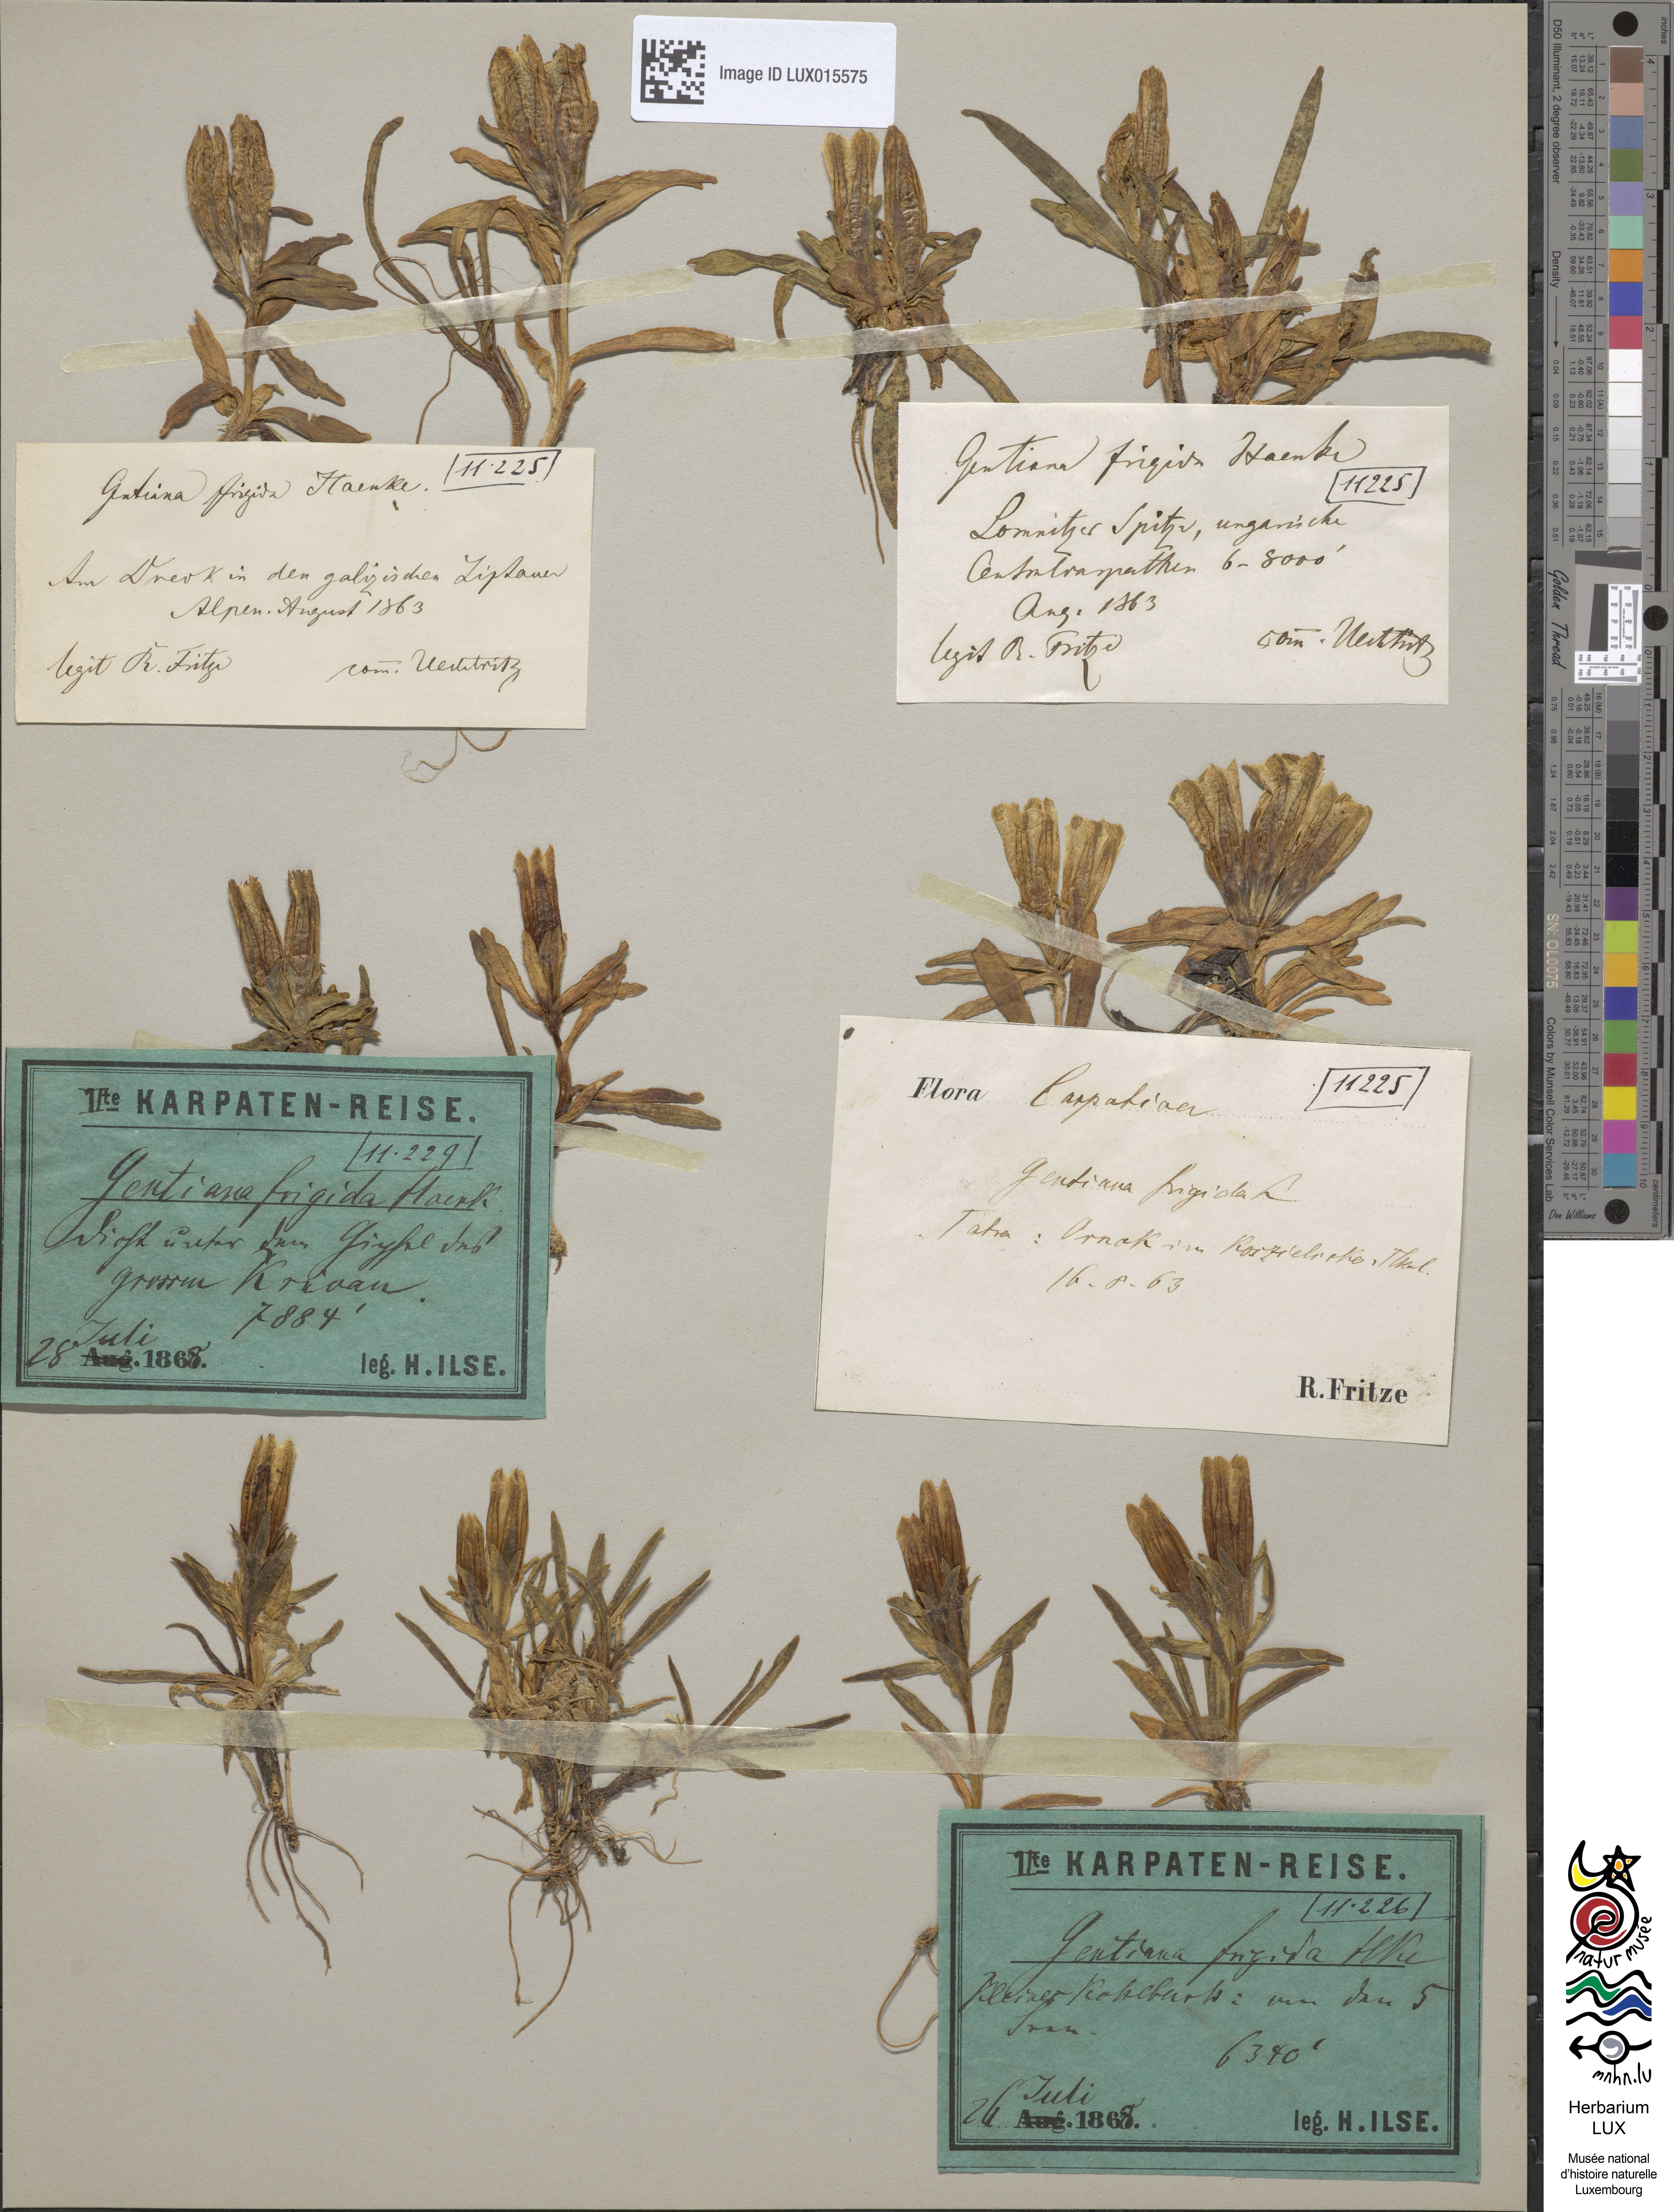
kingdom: Plantae
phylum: Tracheophyta
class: Magnoliopsida
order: Gentianales
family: Gentianaceae
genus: Gentiana
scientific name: Gentiana frigida
